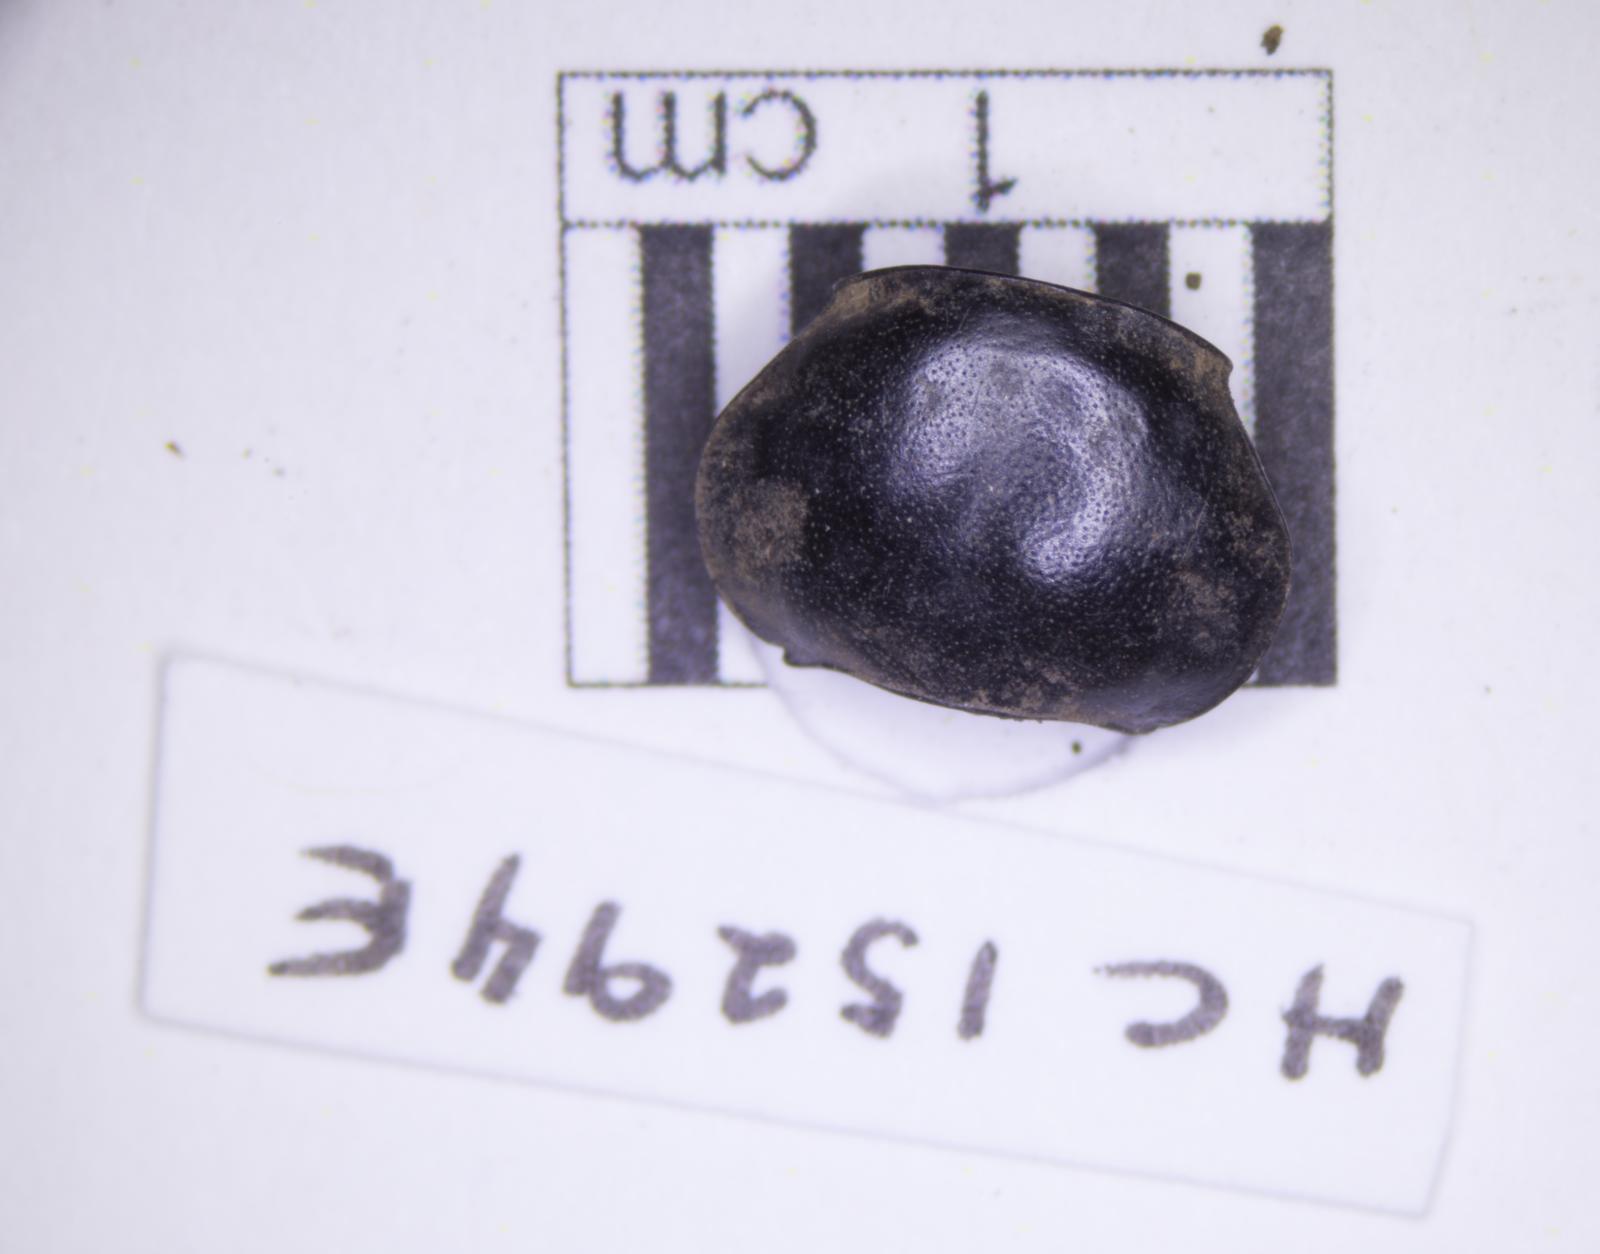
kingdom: Animalia
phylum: Arthropoda
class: Insecta
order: Coleoptera
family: Tenebrionidae
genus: Eleodes
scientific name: Eleodes acuticauda
